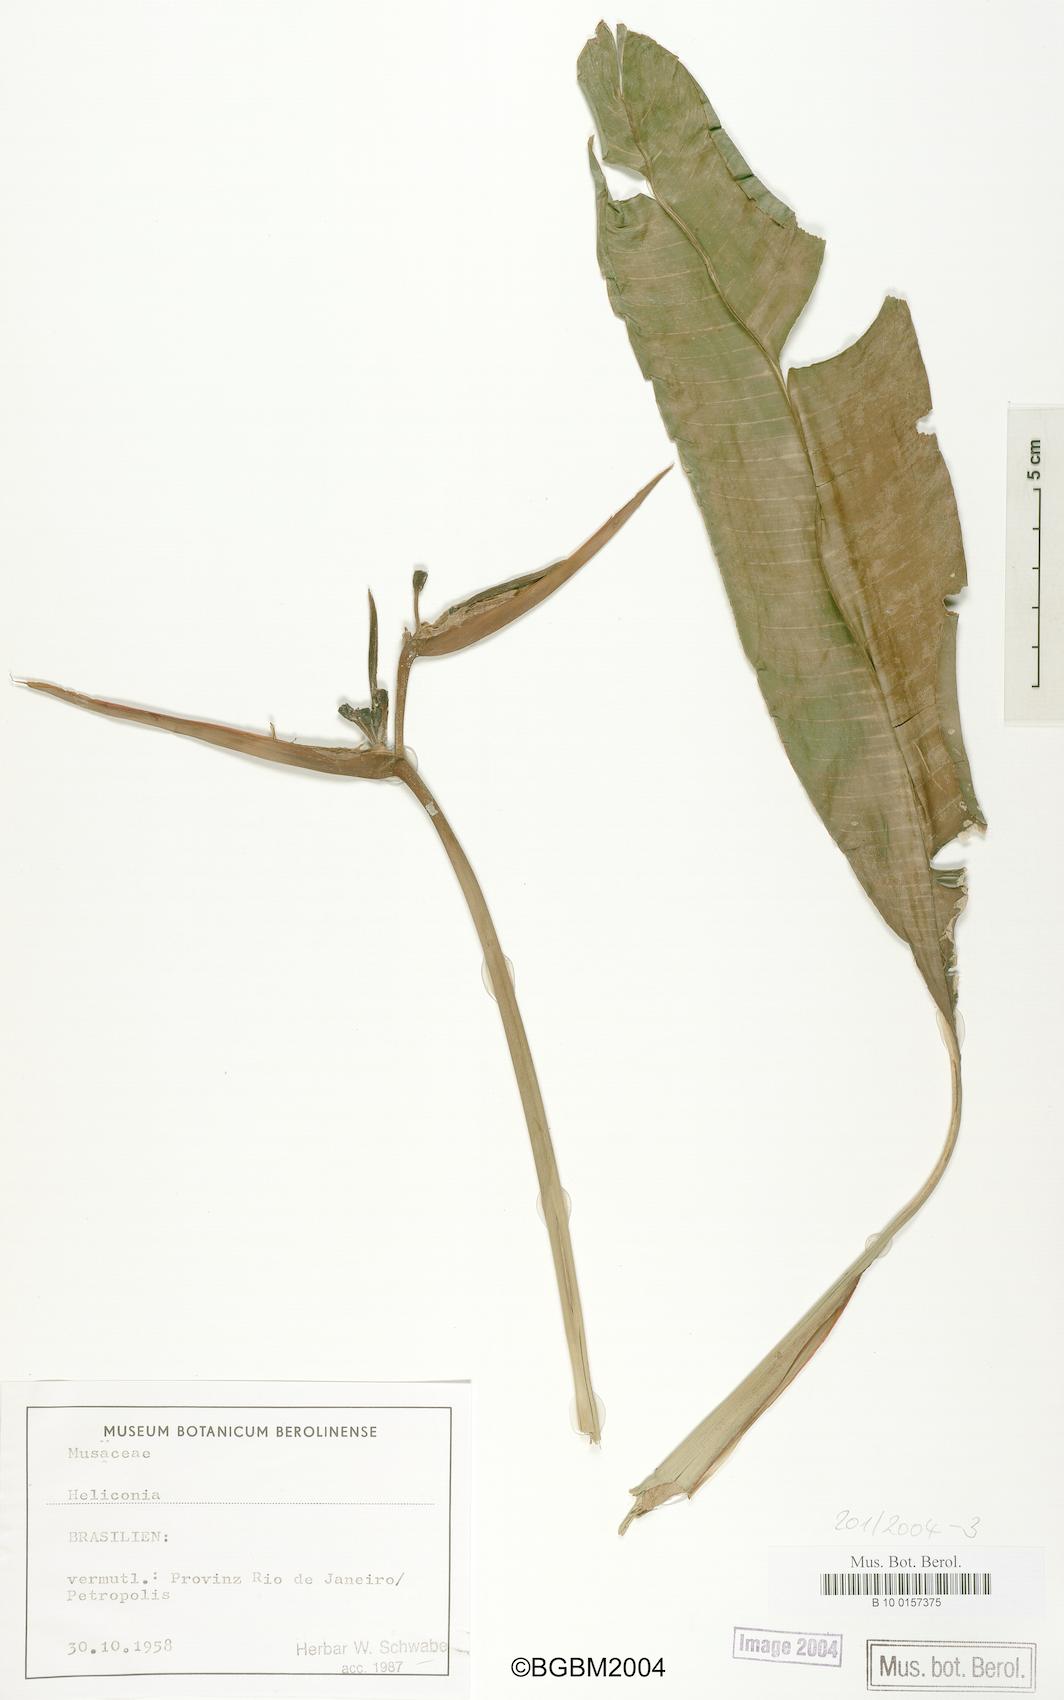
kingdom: Plantae
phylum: Tracheophyta
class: Liliopsida
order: Zingiberales
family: Heliconiaceae
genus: Heliconia
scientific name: Heliconia
